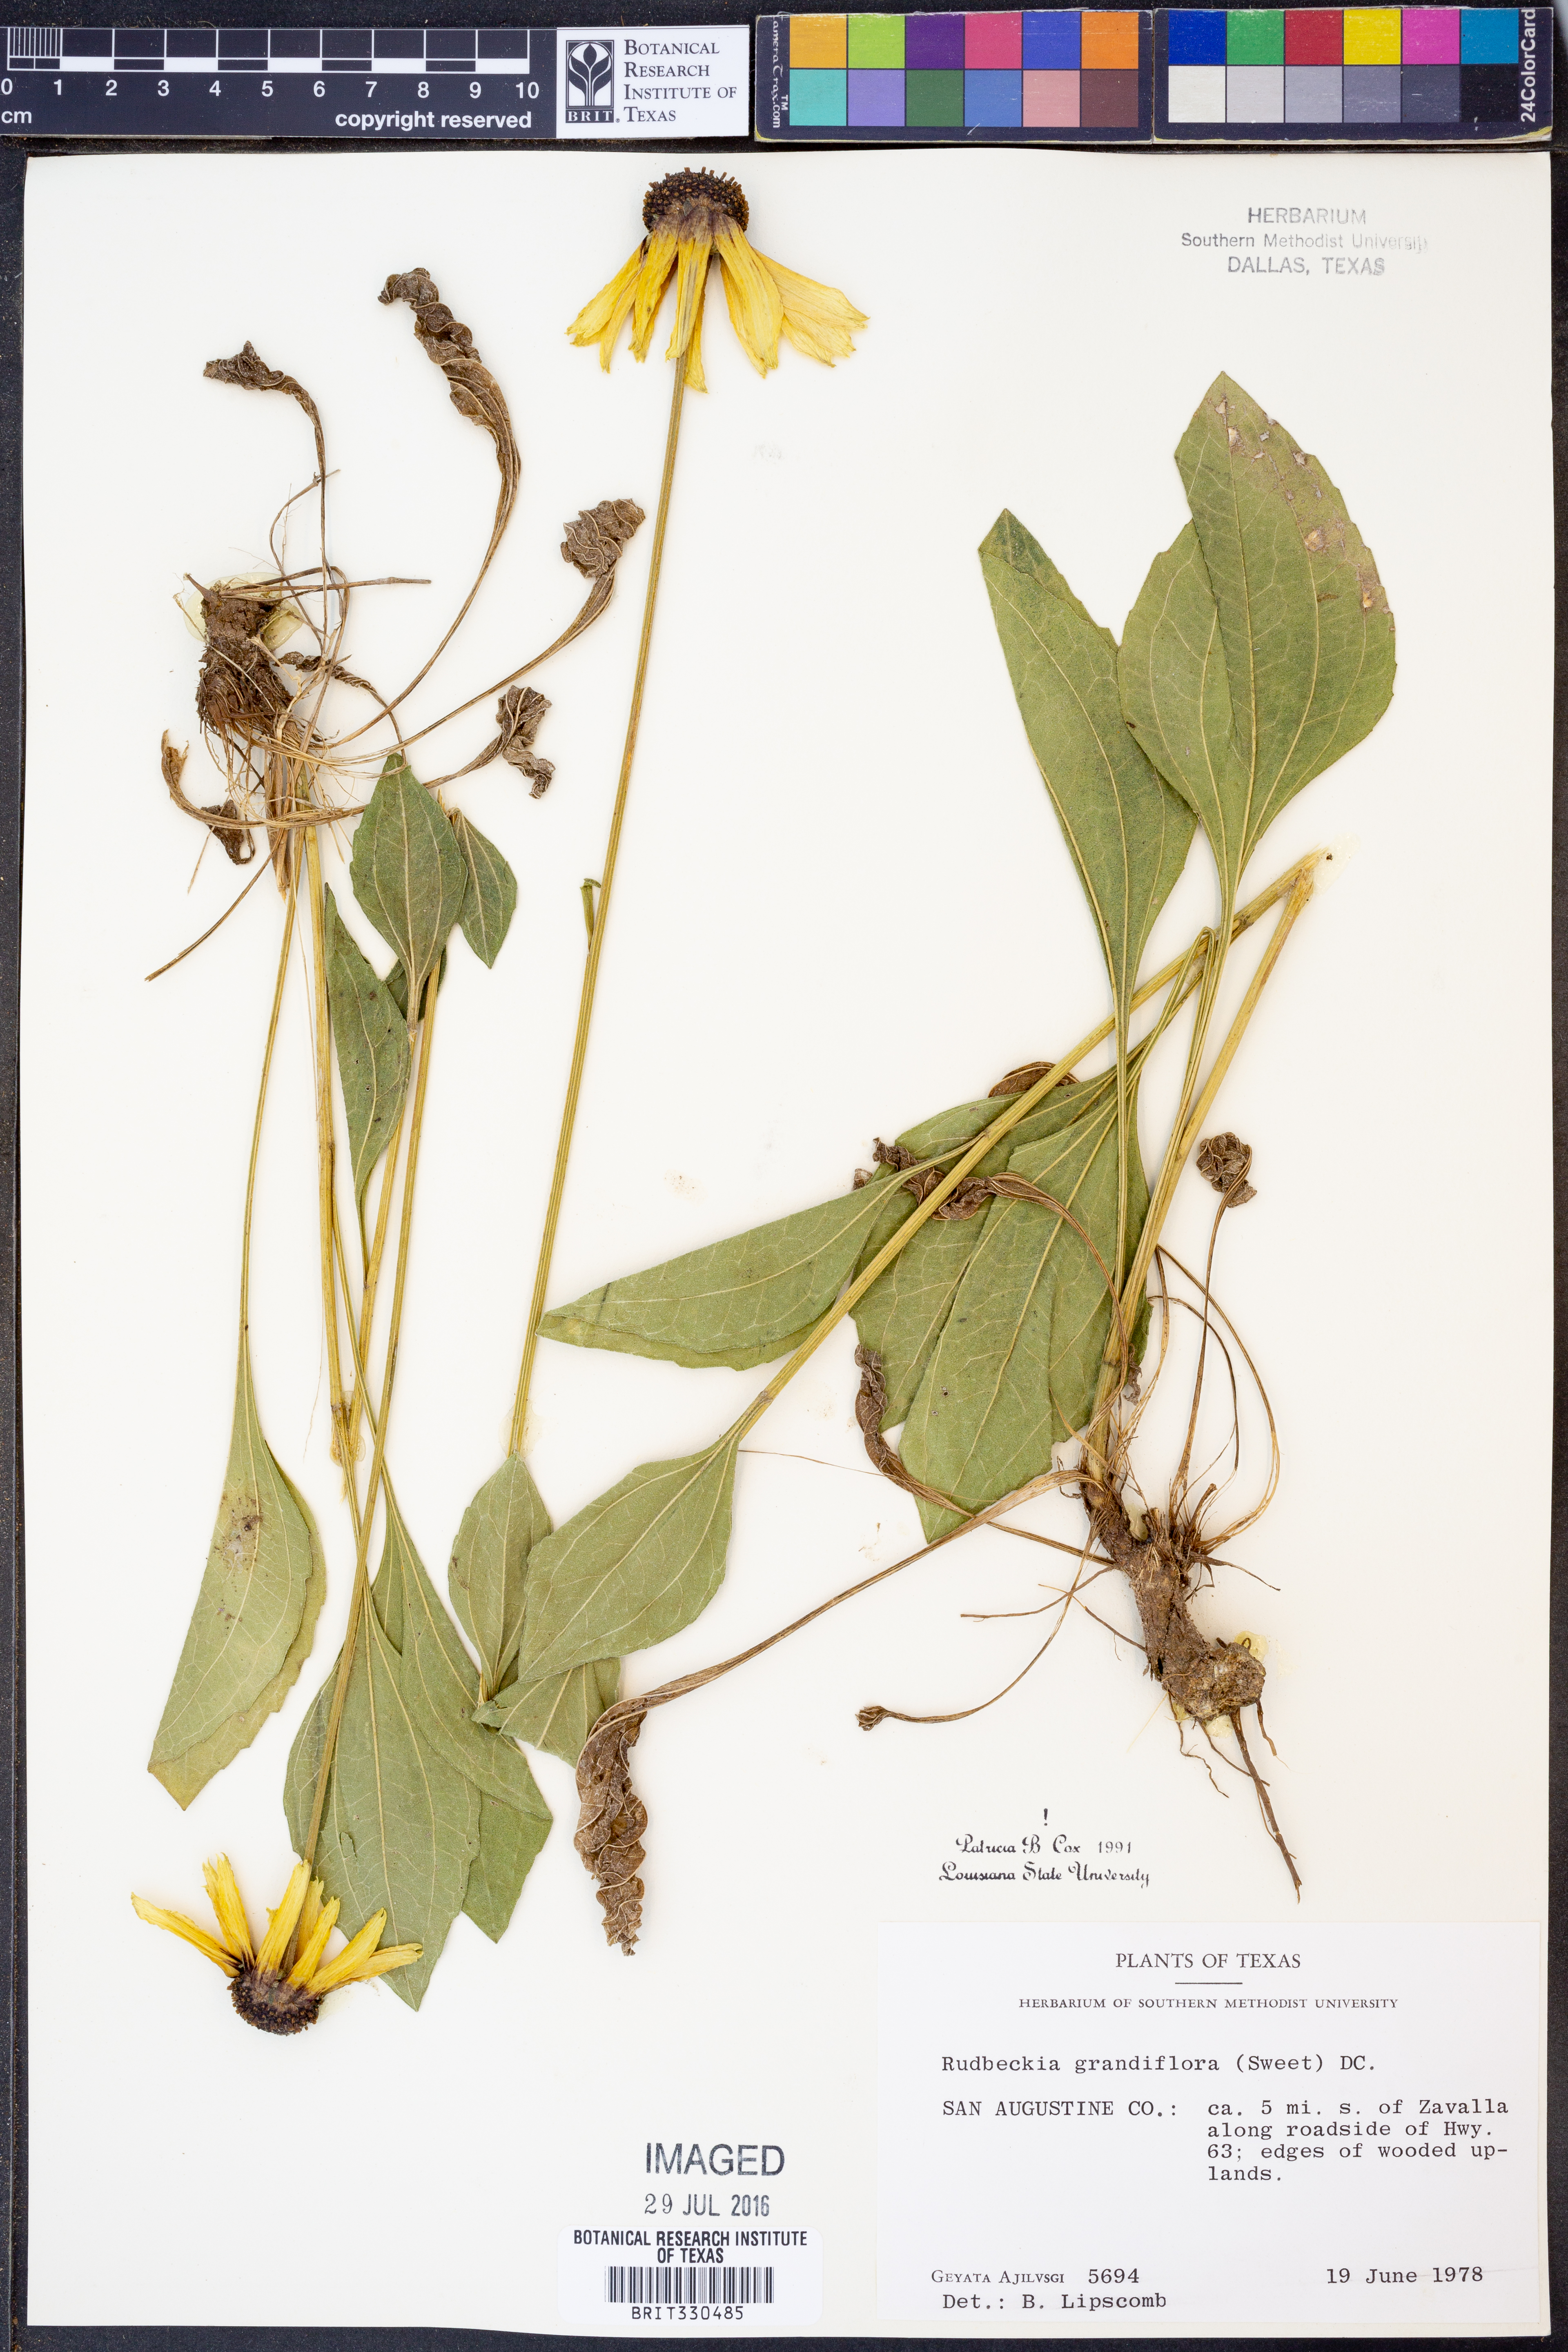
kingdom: Plantae
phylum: Tracheophyta
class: Magnoliopsida
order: Asterales
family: Asteraceae
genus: Rudbeckia
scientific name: Rudbeckia grandiflora
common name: Large-flowered coneflower
